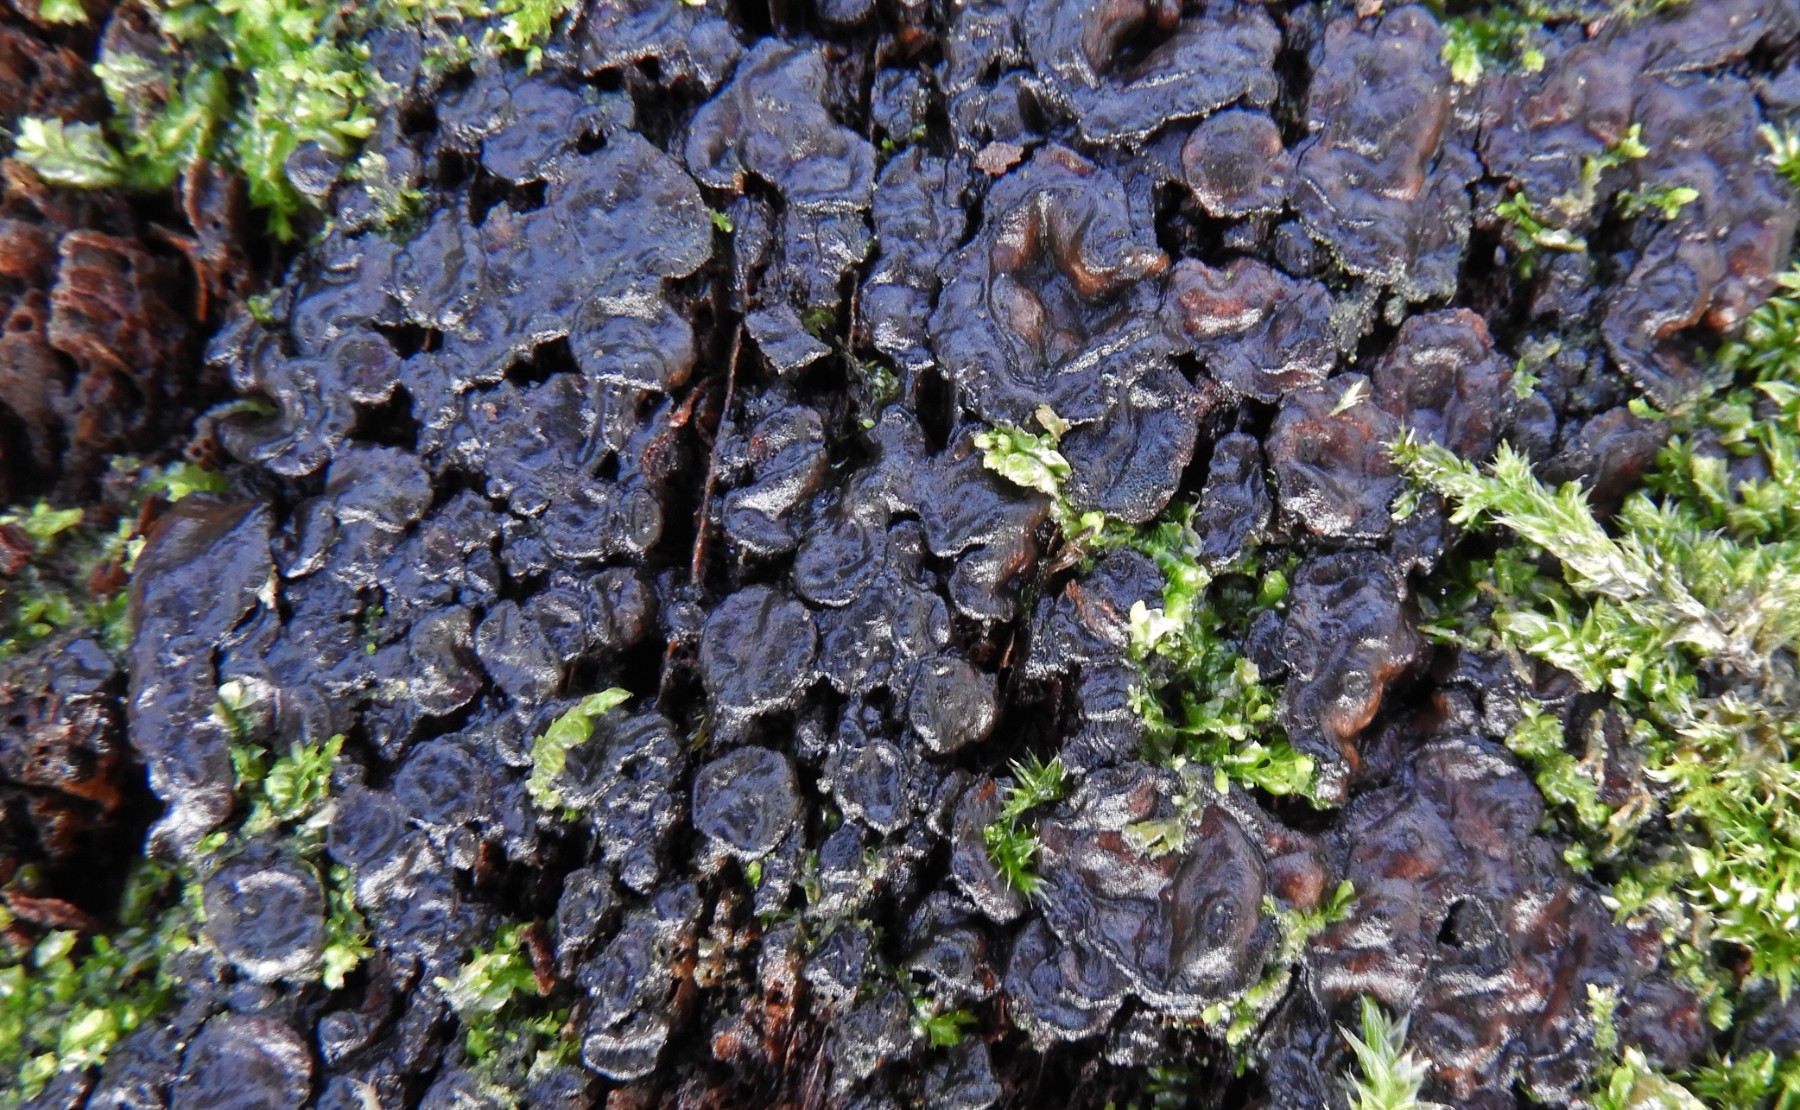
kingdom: Fungi
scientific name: Fungi
